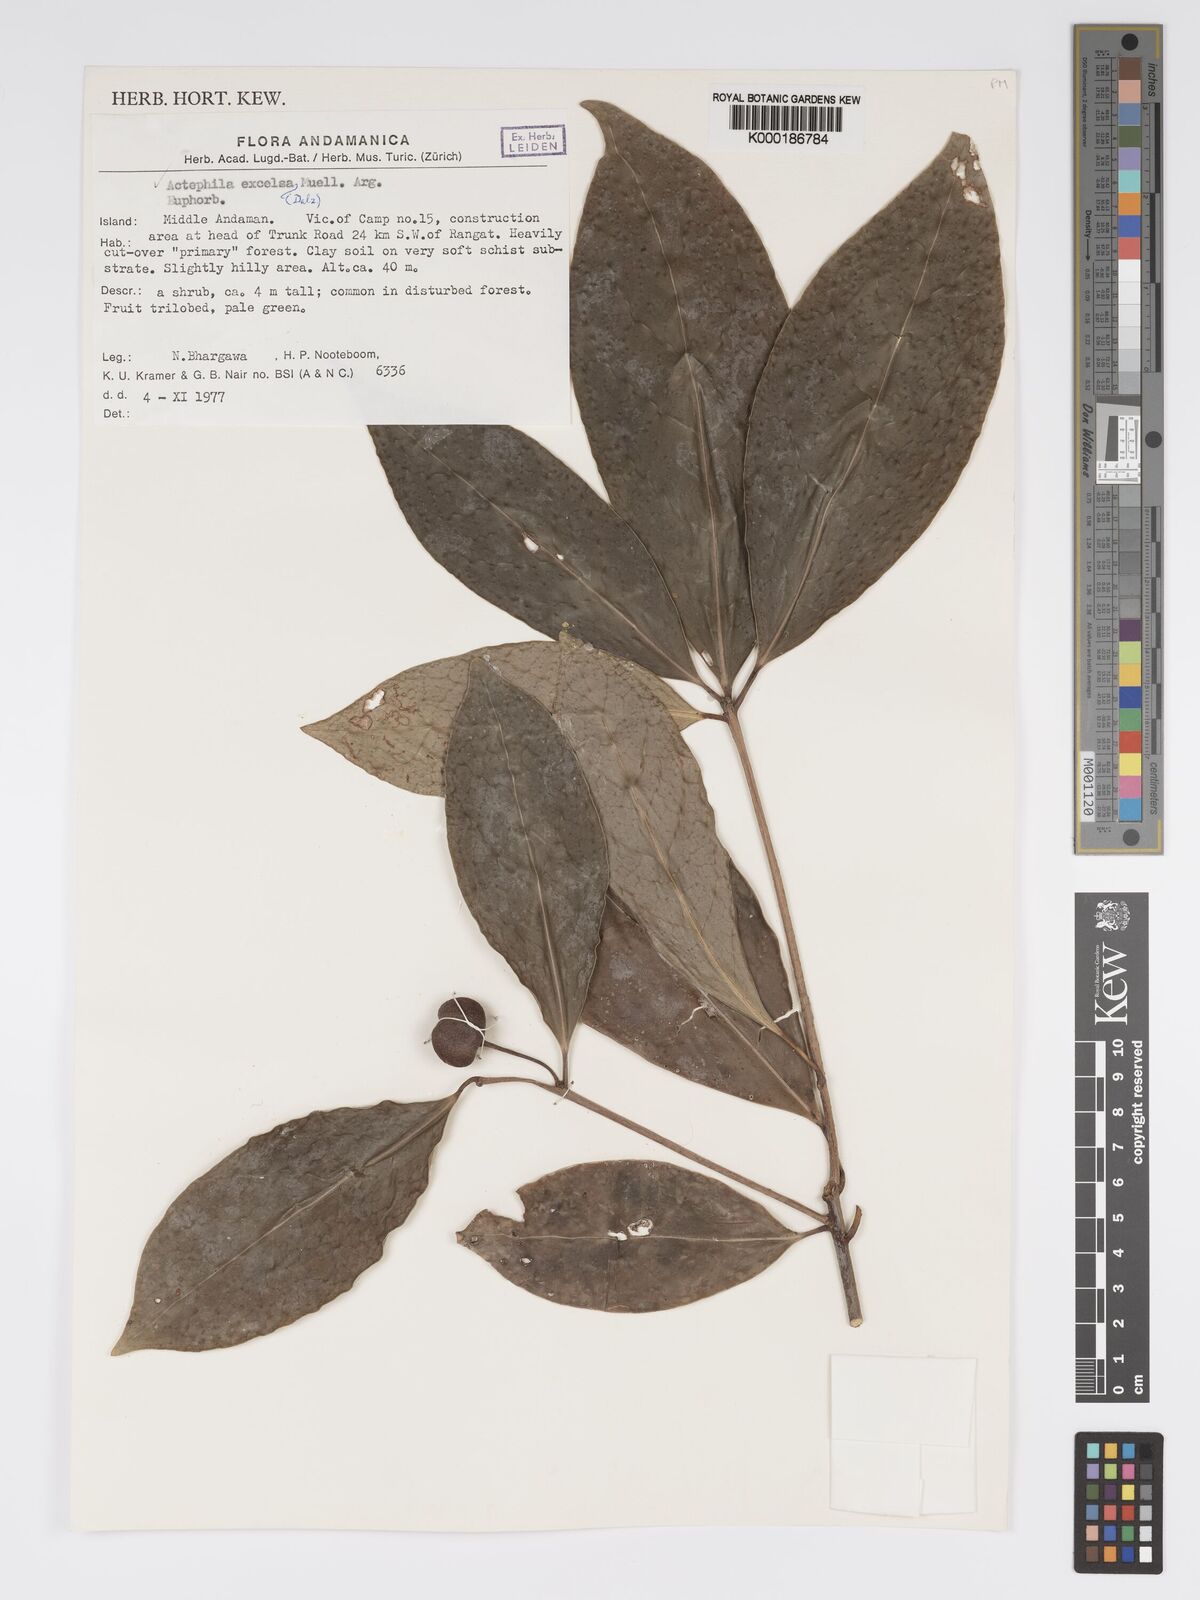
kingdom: Plantae
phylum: Tracheophyta
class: Magnoliopsida
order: Malpighiales
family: Phyllanthaceae
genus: Actephila
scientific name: Actephila excelsa
